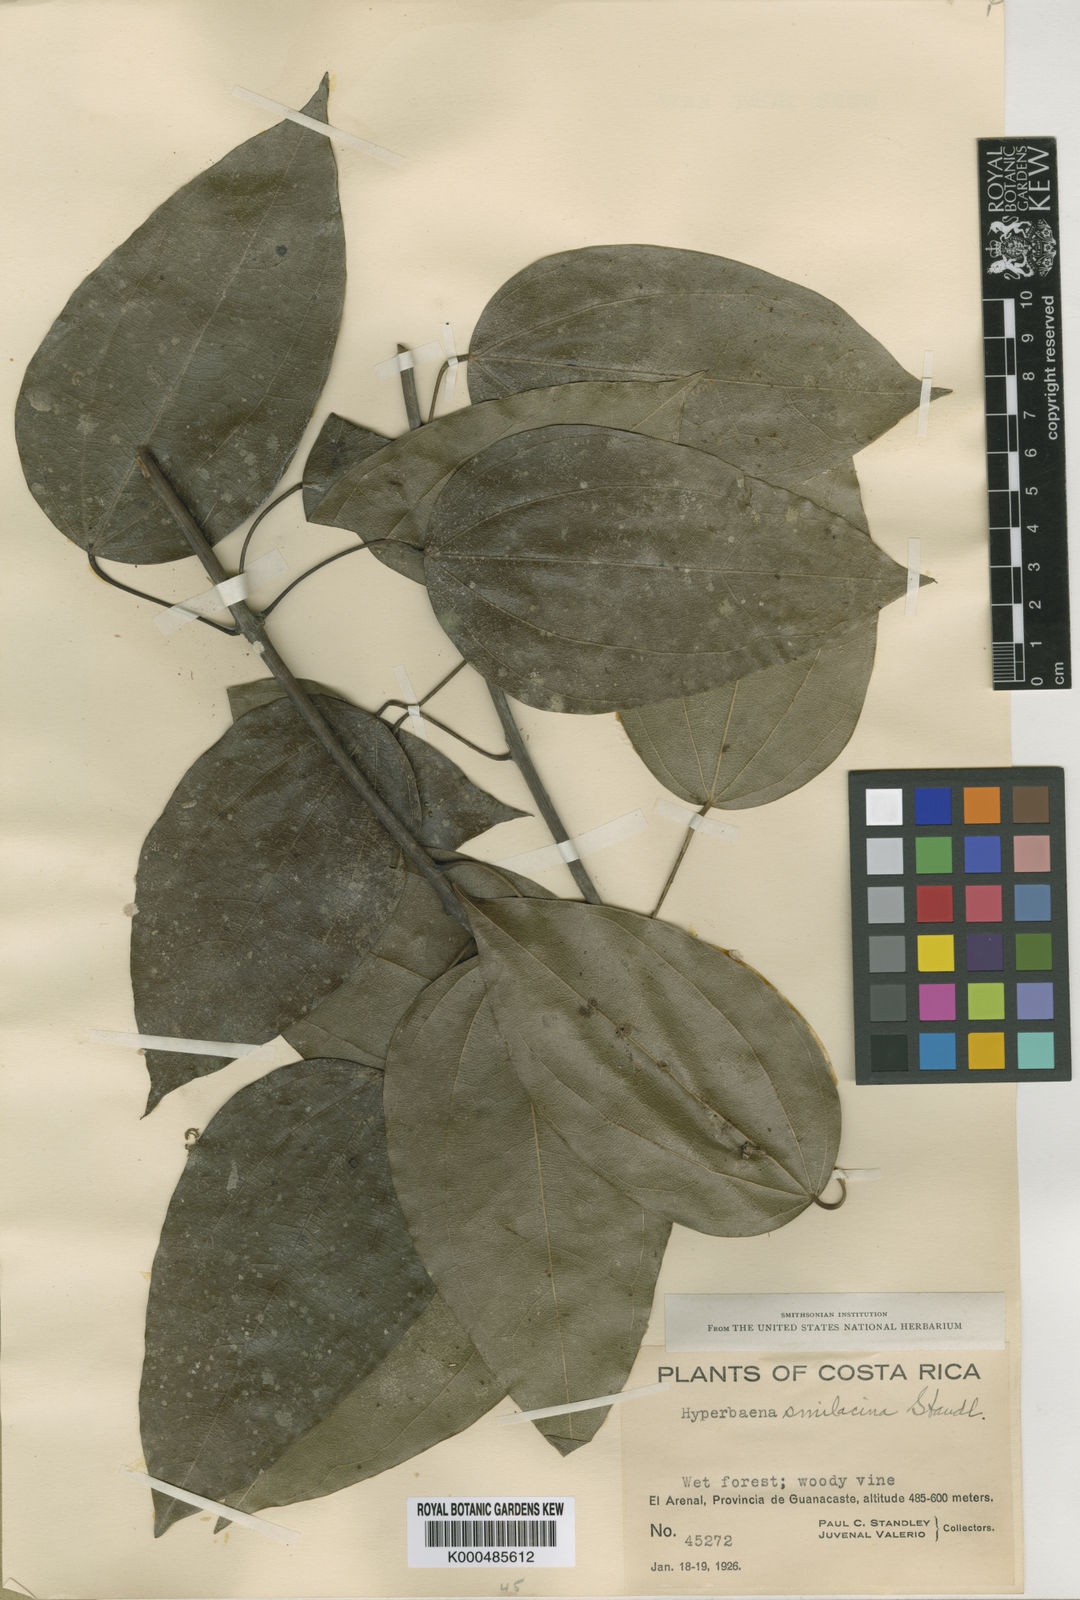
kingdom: Plantae
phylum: Tracheophyta
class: Magnoliopsida
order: Ranunculales
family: Menispermaceae
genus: Abuta
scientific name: Abuta
